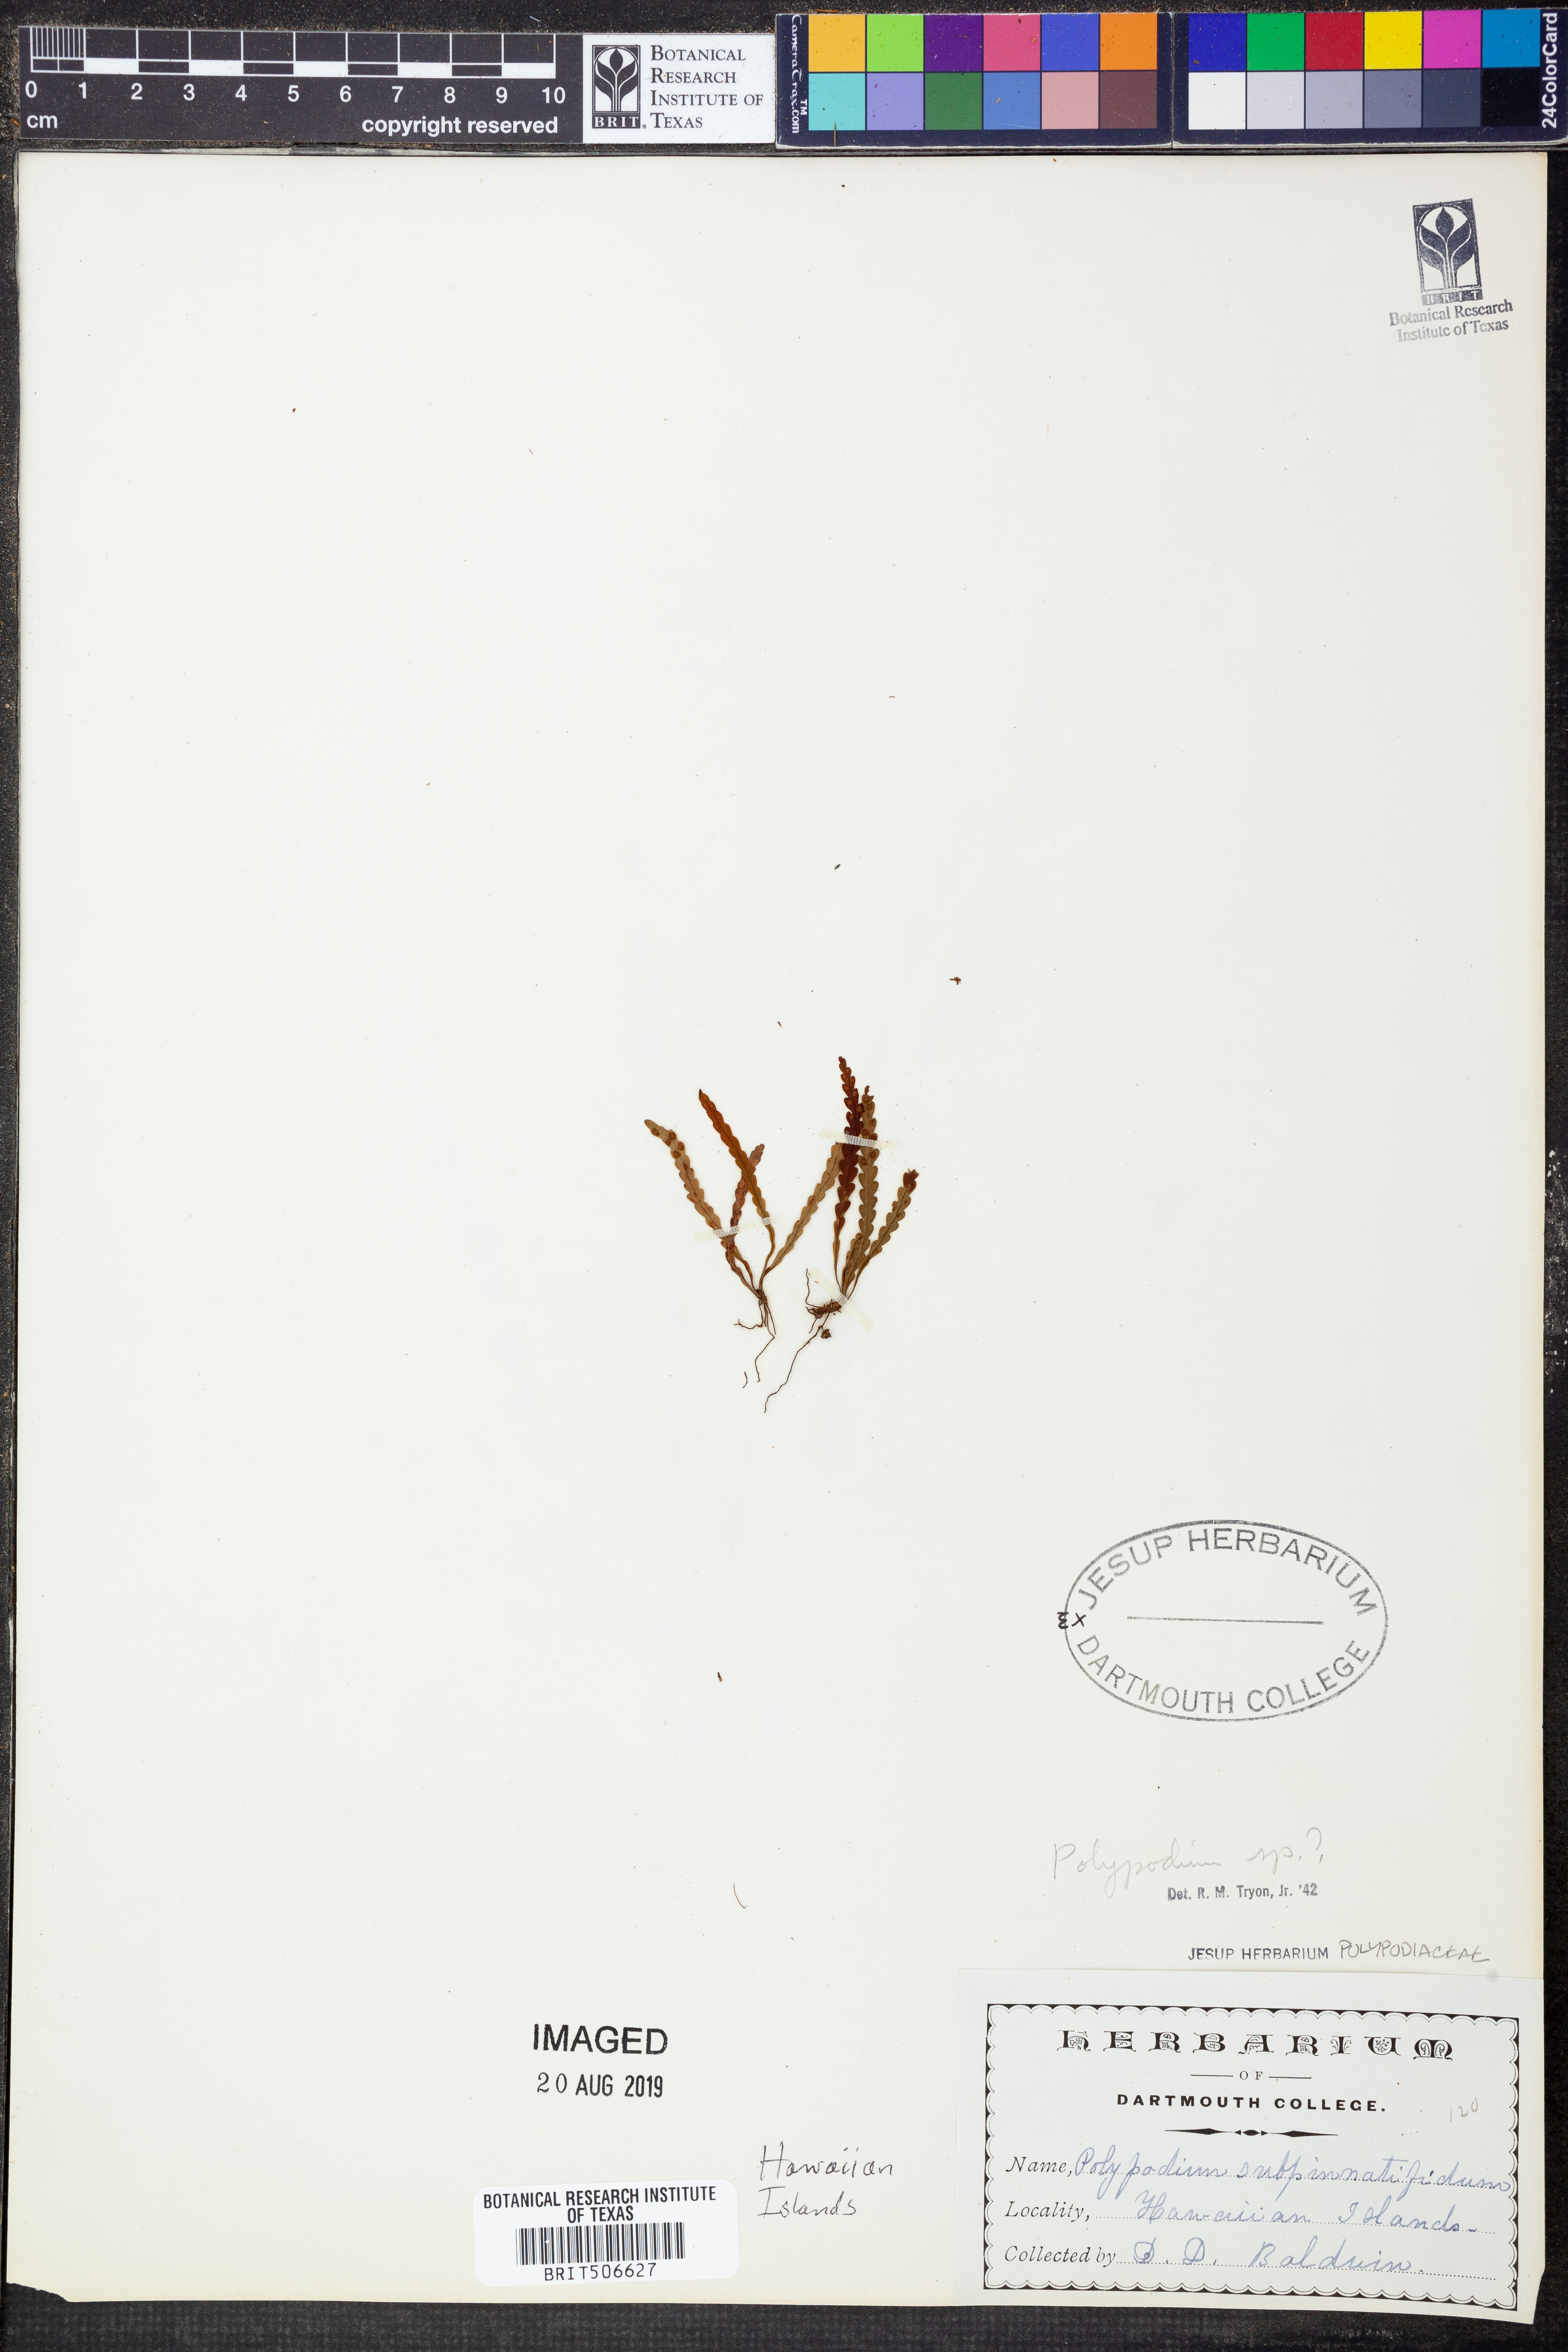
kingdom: Plantae
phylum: Tracheophyta
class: Polypodiopsida
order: Polypodiales
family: Polypodiaceae
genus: Polypodium
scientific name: Polypodium
